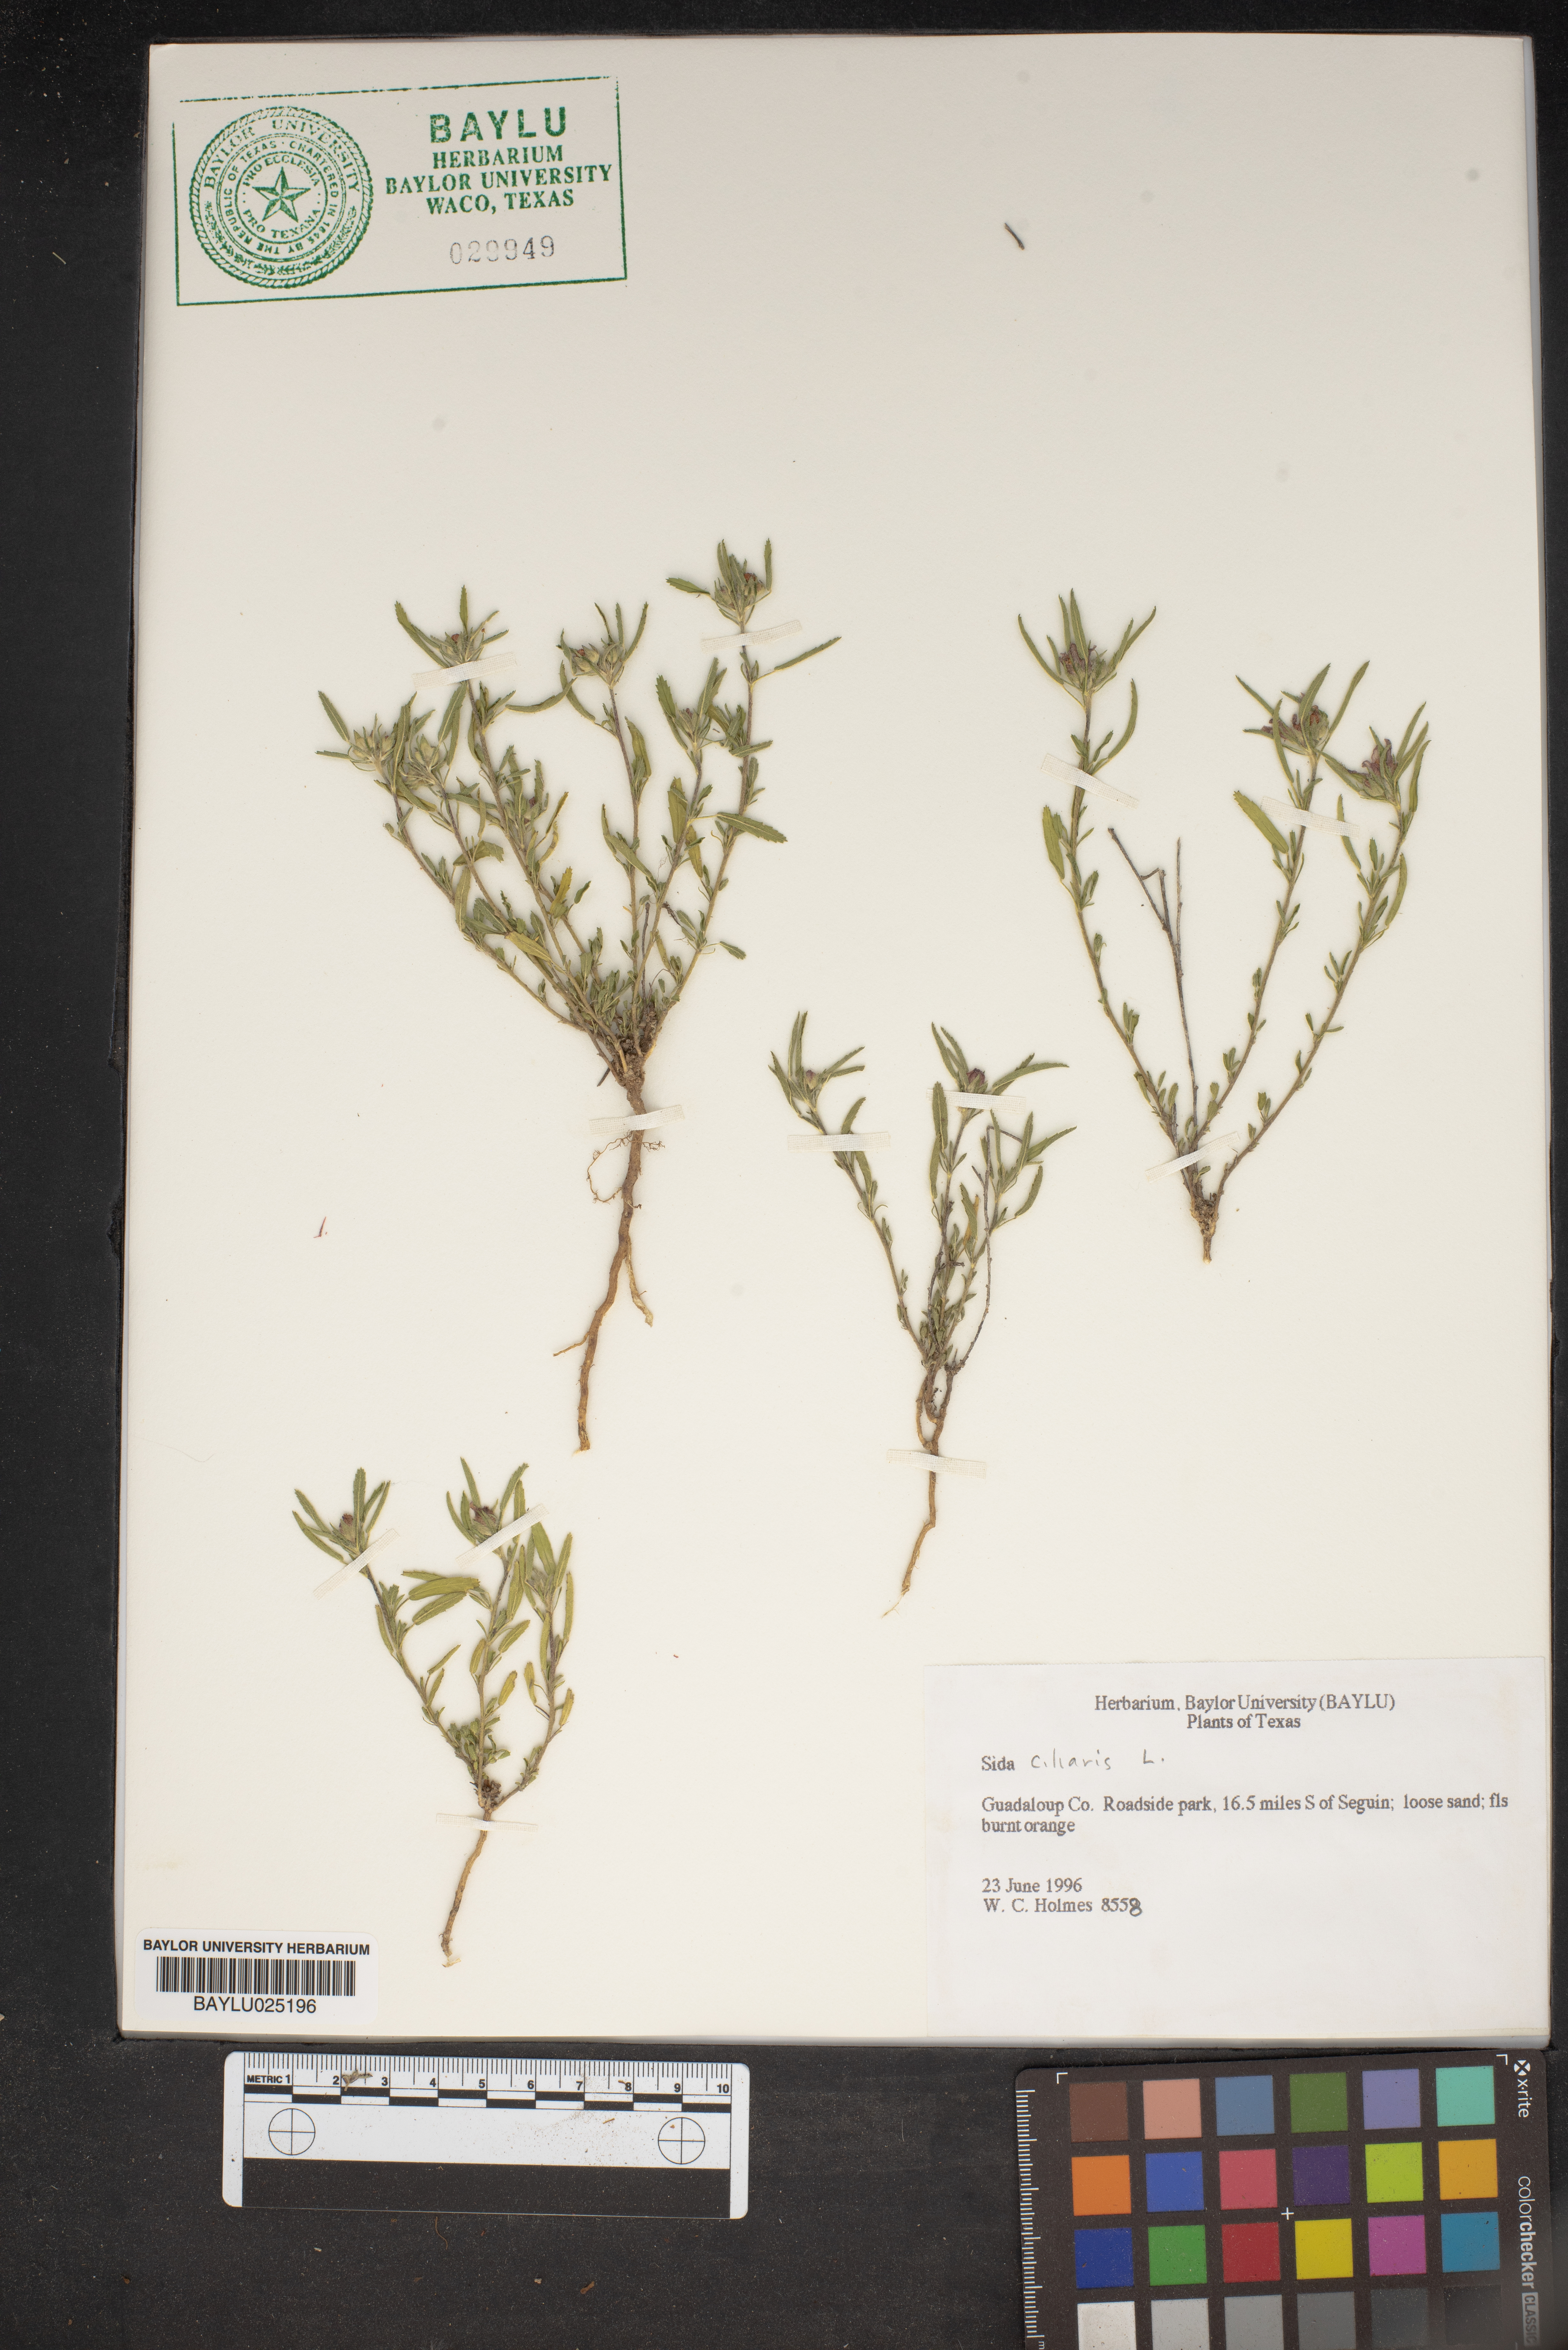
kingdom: Plantae
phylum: Tracheophyta
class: Magnoliopsida
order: Malvales
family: Malvaceae
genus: Sida
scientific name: Sida ciliaris
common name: Bracted fanpetals
